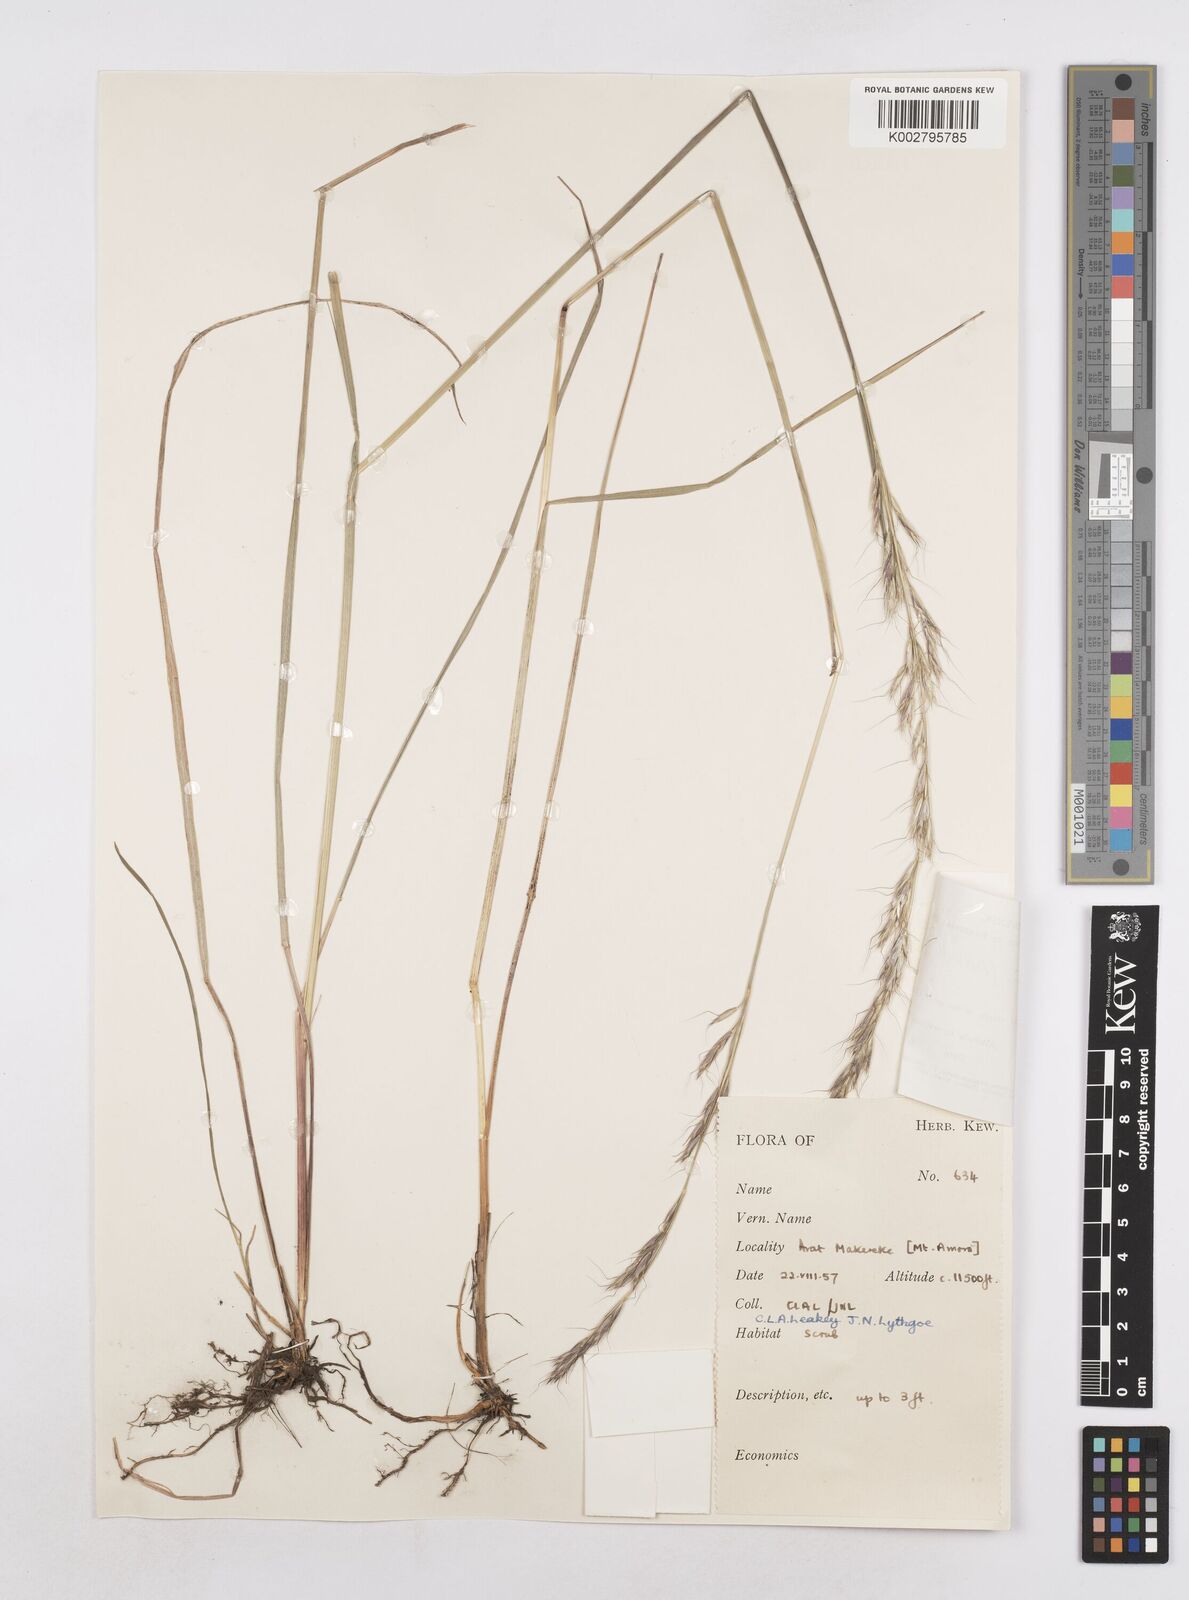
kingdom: Plantae
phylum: Tracheophyta
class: Liliopsida
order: Poales
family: Poaceae
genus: Trisetopsis
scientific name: Trisetopsis elongata
